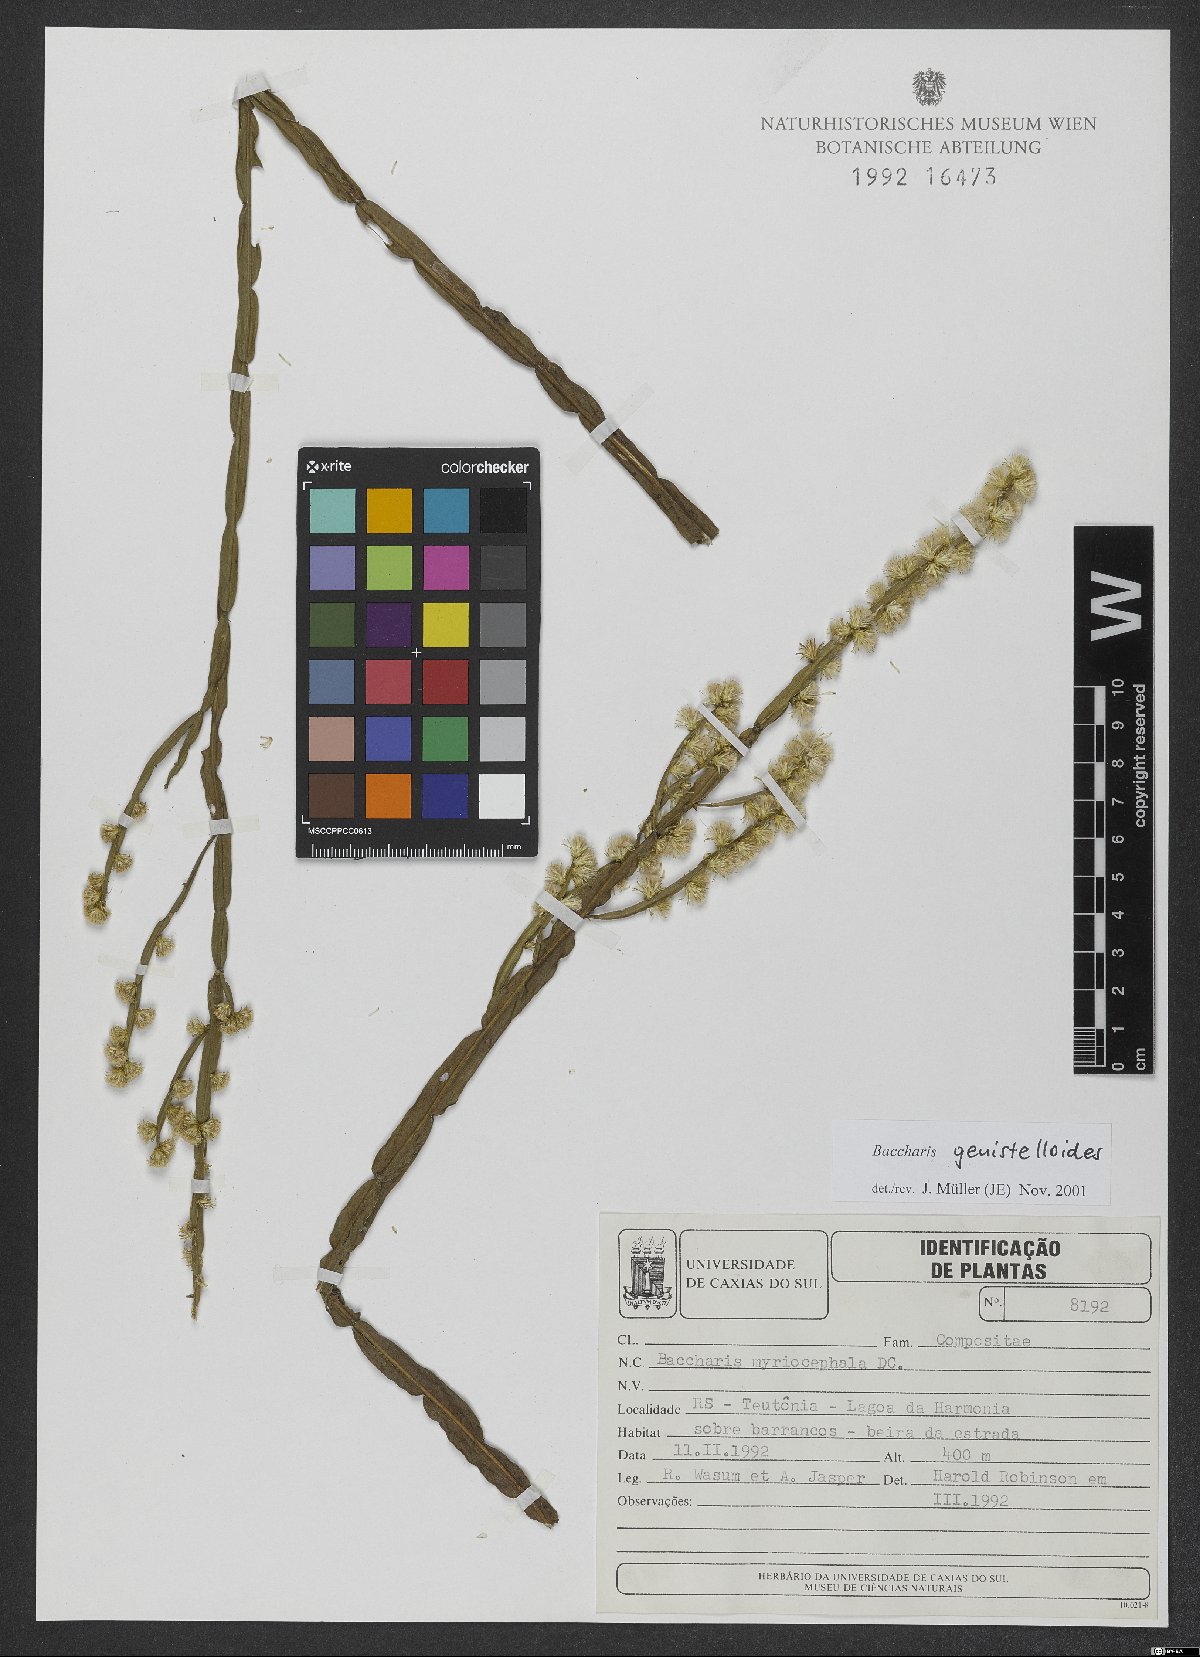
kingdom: Plantae
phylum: Tracheophyta
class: Magnoliopsida
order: Asterales
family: Asteraceae
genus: Baccharis
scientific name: Baccharis genistelloides
